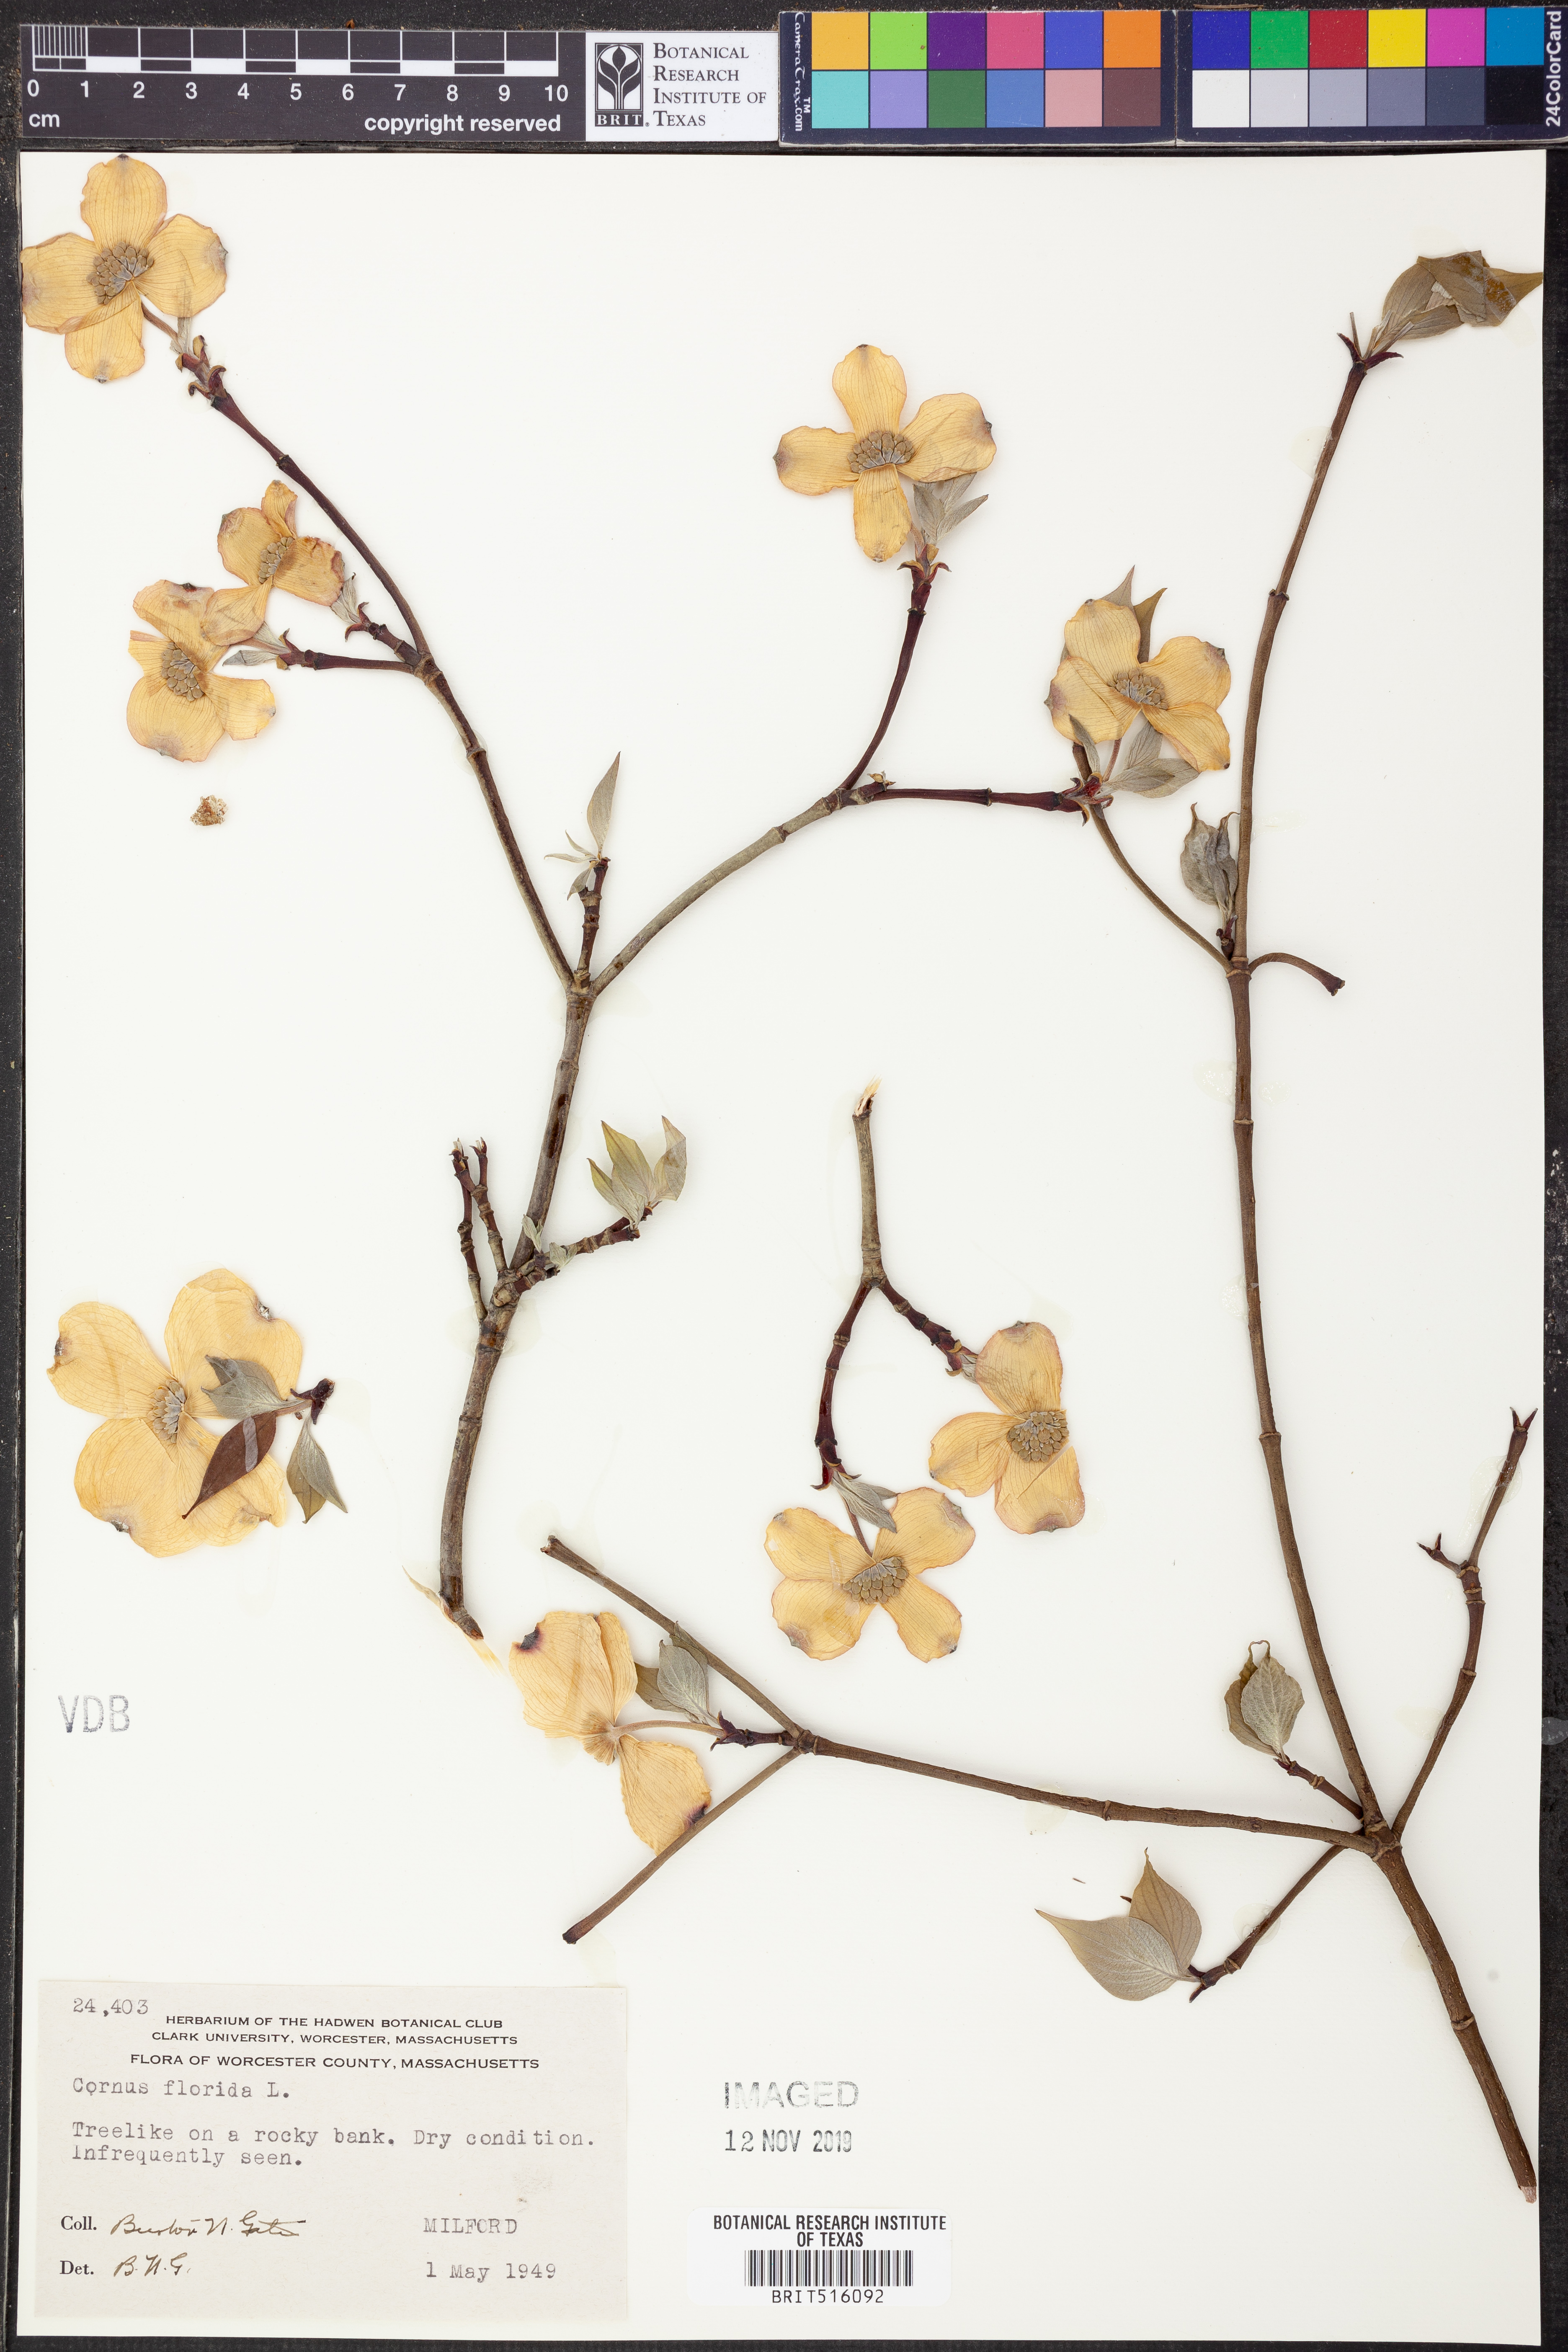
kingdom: Plantae
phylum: Tracheophyta
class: Magnoliopsida
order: Cornales
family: Cornaceae
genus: Cornus
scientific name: Cornus florida
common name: Flowering dogwood
